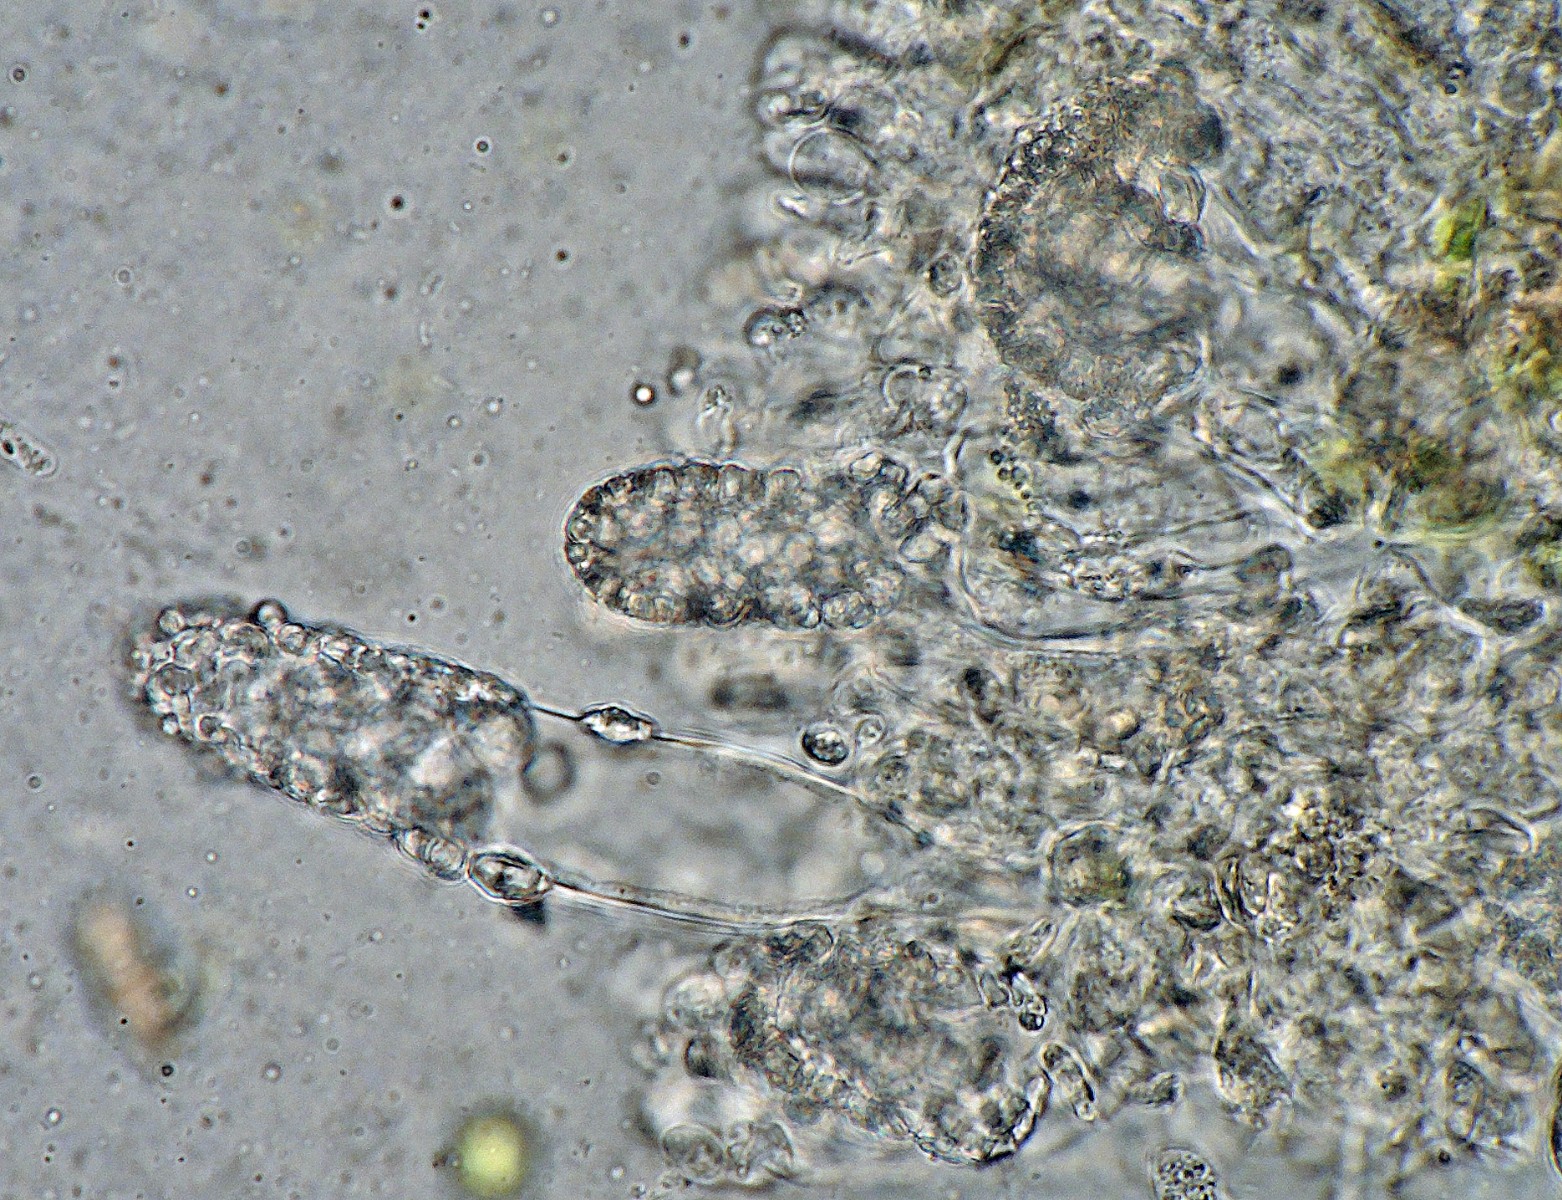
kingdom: Fungi
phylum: Basidiomycota
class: Agaricomycetes
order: Hymenochaetales
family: Rickenellaceae
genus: Peniophorella
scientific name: Peniophorella guttulifera
